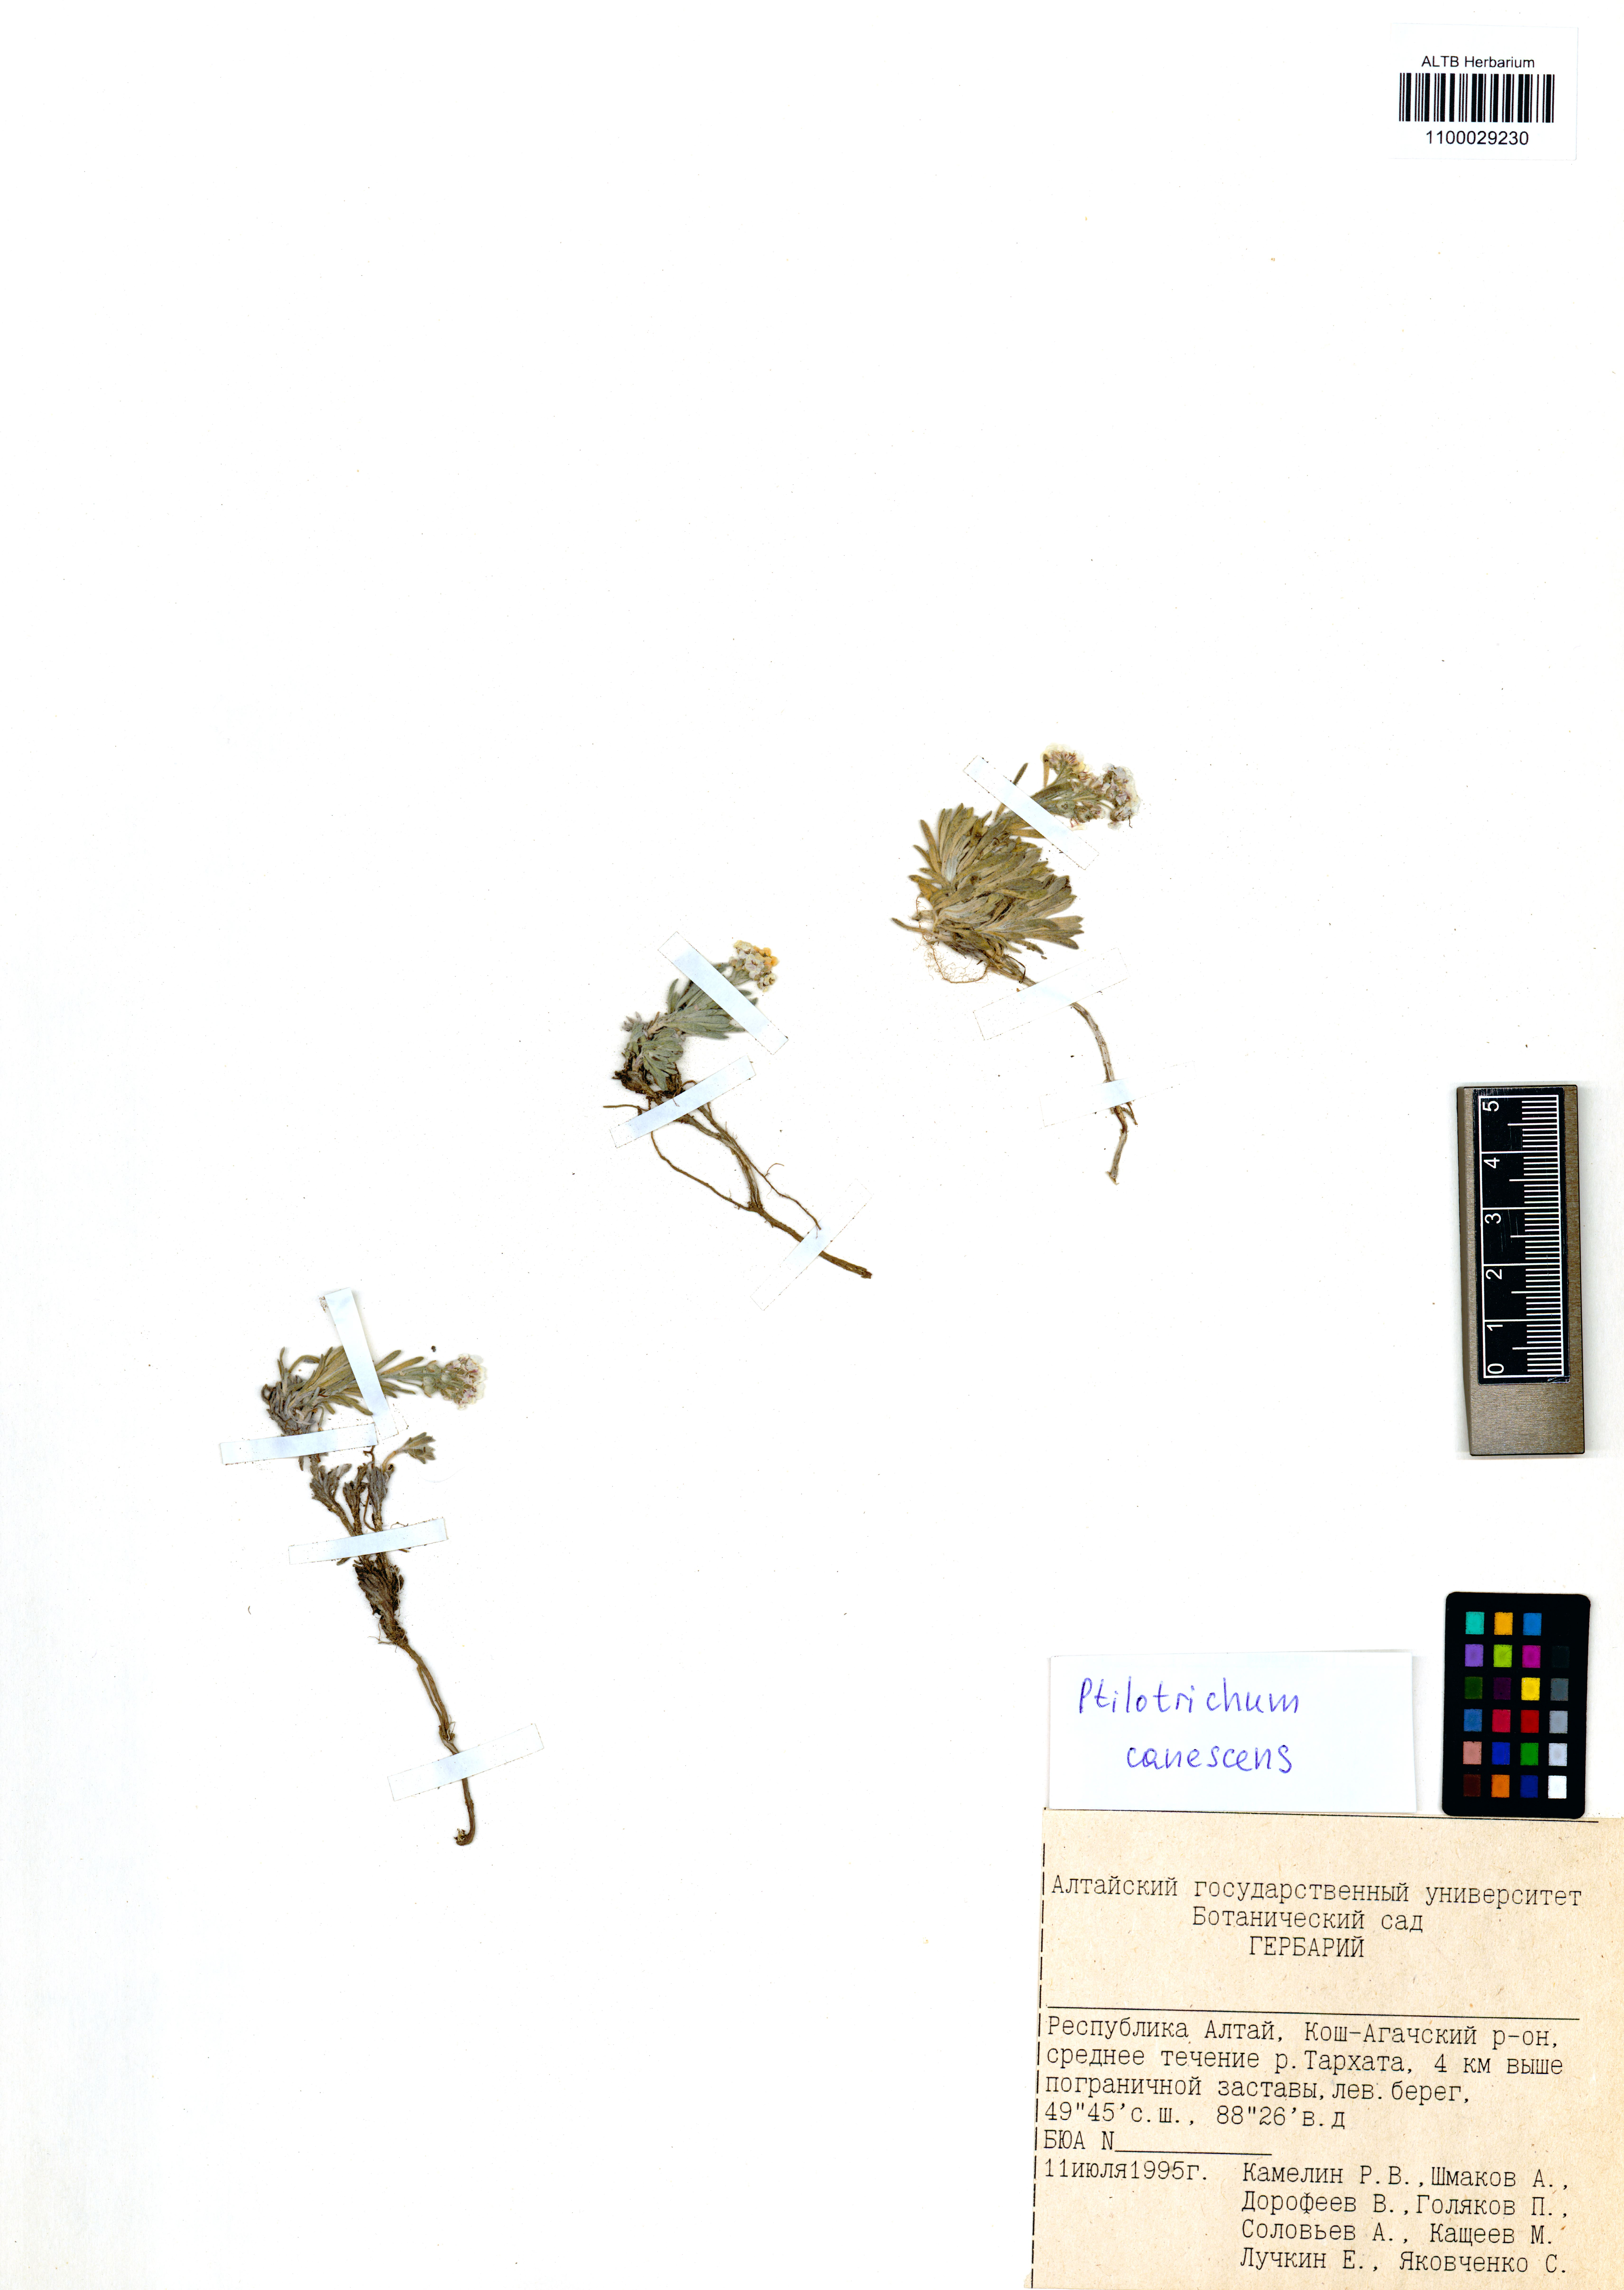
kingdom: Plantae
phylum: Tracheophyta
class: Magnoliopsida
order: Brassicales
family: Brassicaceae
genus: Stevenia
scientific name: Stevenia canescens
